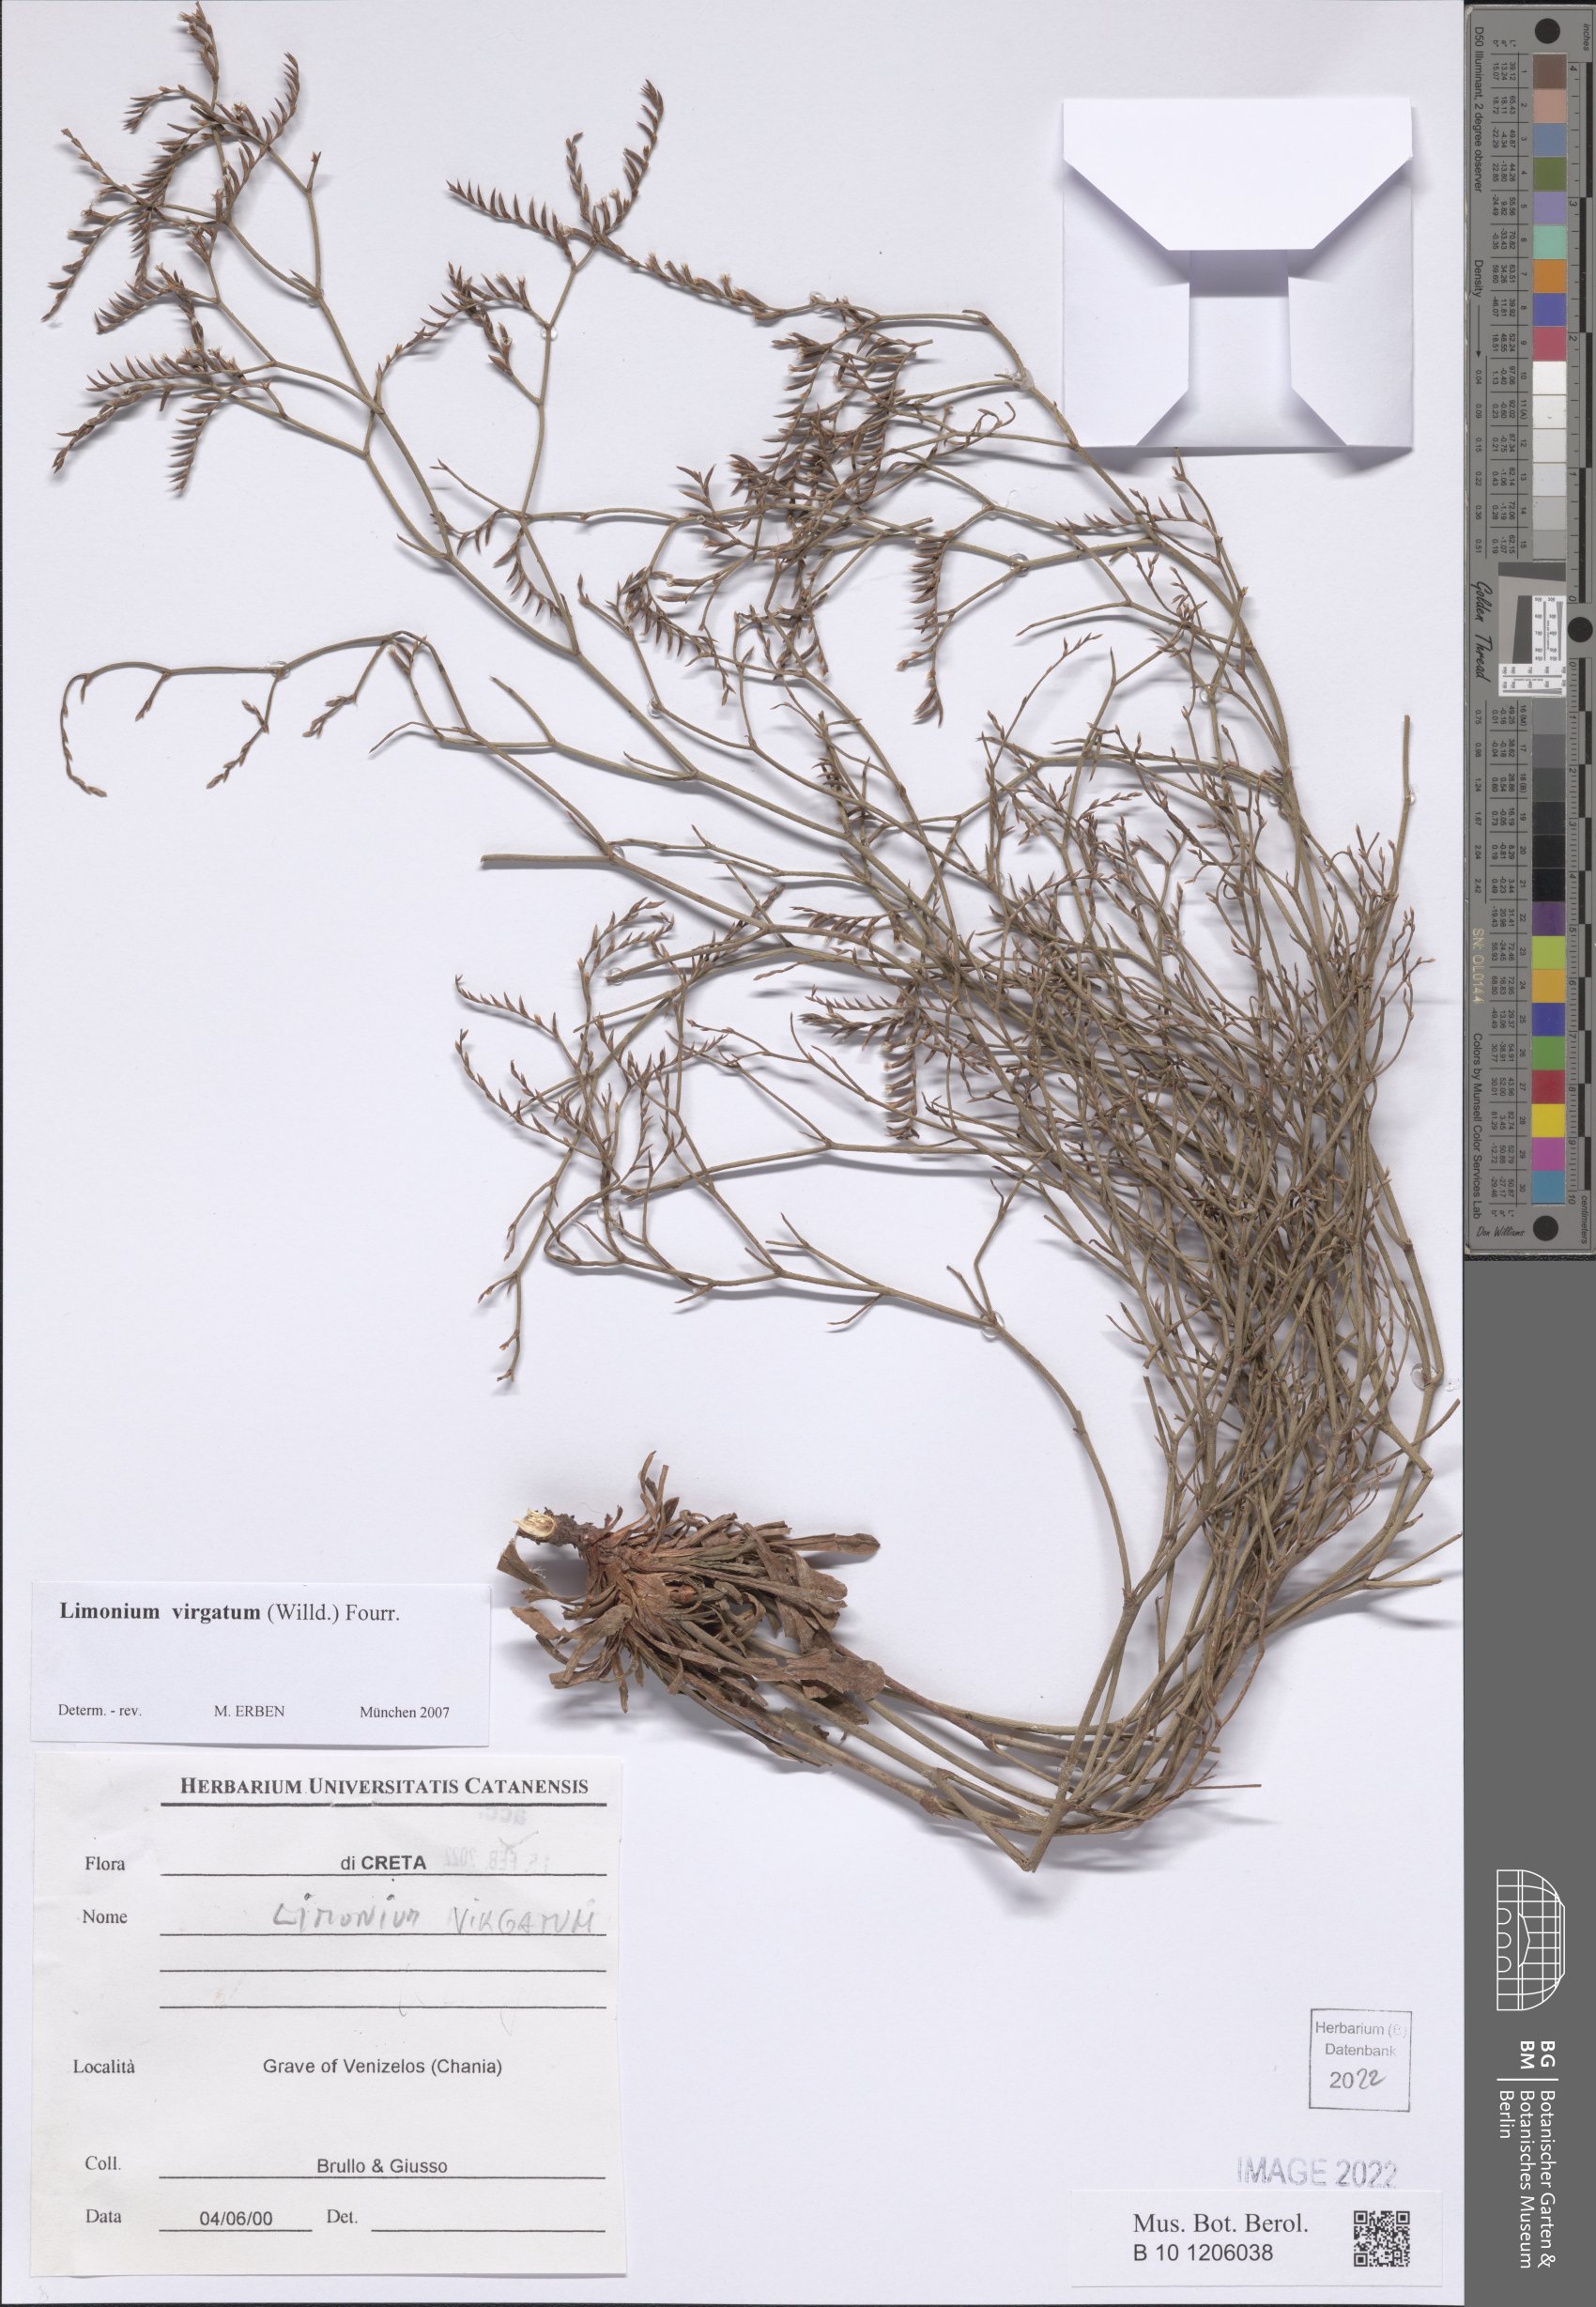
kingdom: Plantae
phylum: Tracheophyta
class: Magnoliopsida
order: Caryophyllales
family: Plumbaginaceae
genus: Limonium
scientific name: Limonium virgatum
